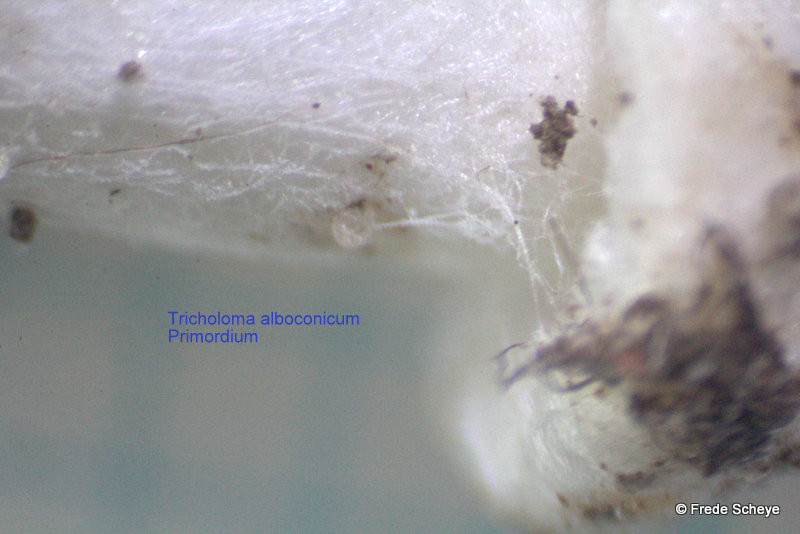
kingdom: Fungi
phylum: Basidiomycota
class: Agaricomycetes
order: Agaricales
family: Tricholomataceae
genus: Tricholoma
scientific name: Tricholoma argyraceum
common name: slør-ridderhat
